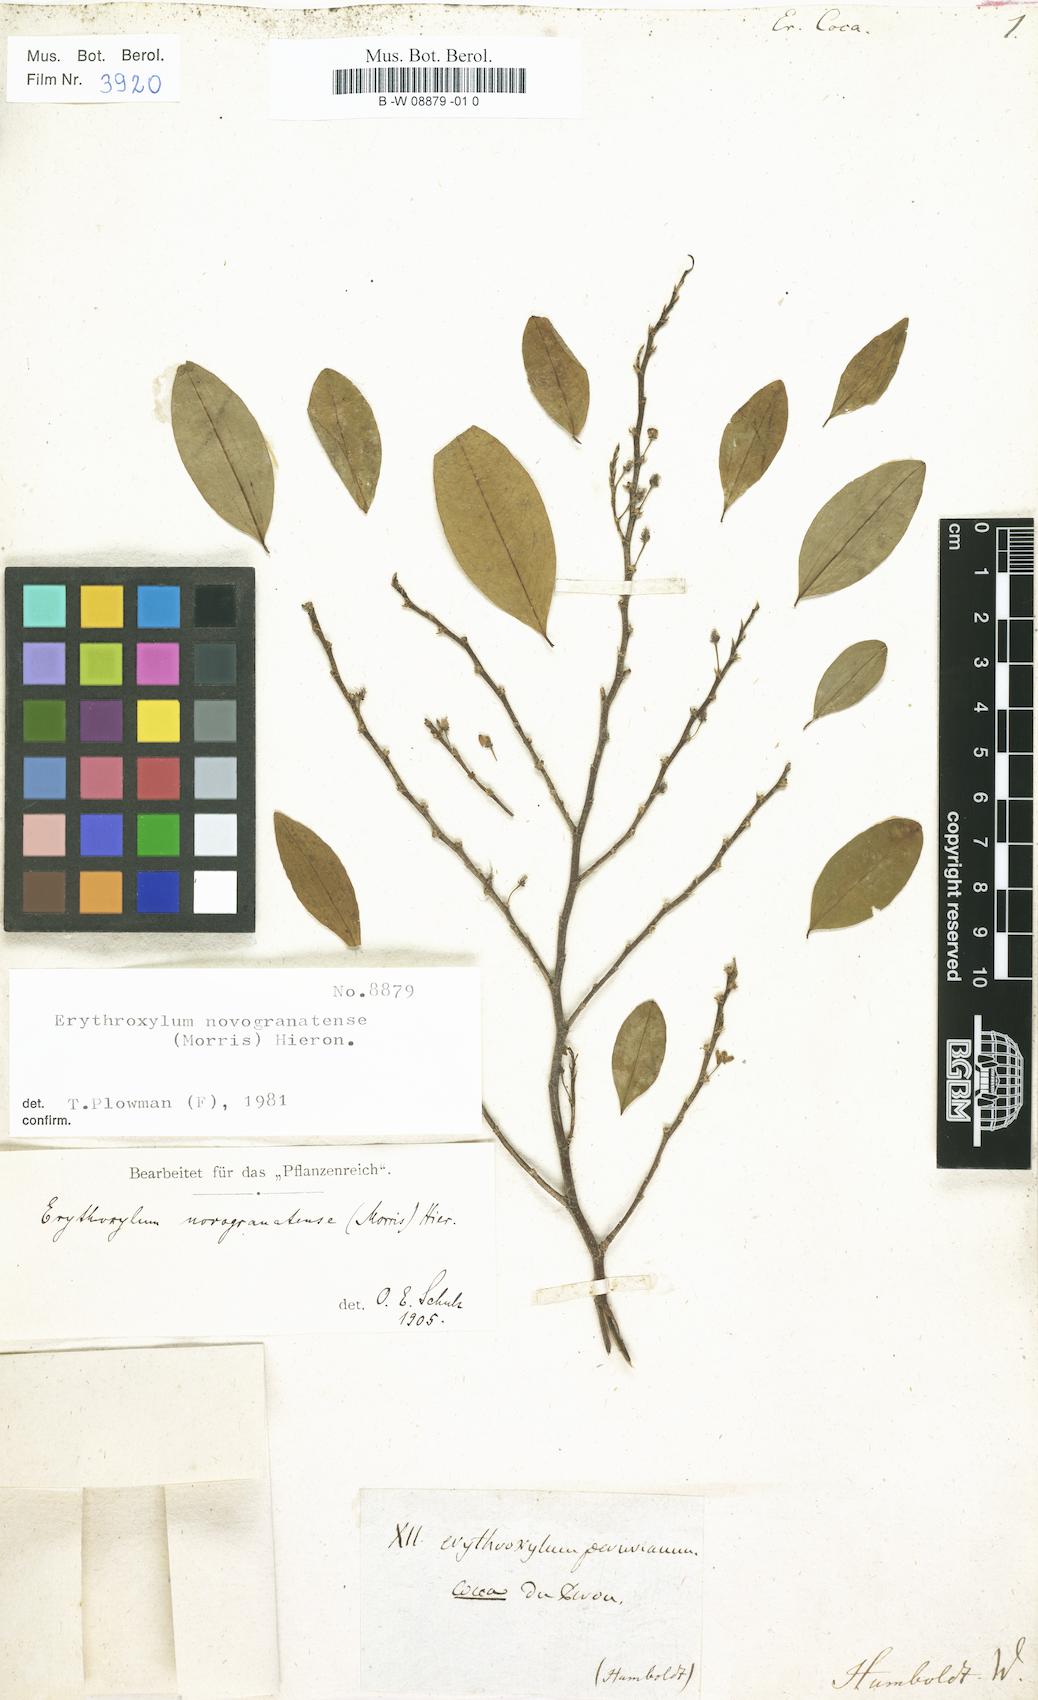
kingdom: Plantae
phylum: Tracheophyta
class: Magnoliopsida
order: Malpighiales
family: Erythroxylaceae
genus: Erythroxylum
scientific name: Erythroxylum coca
